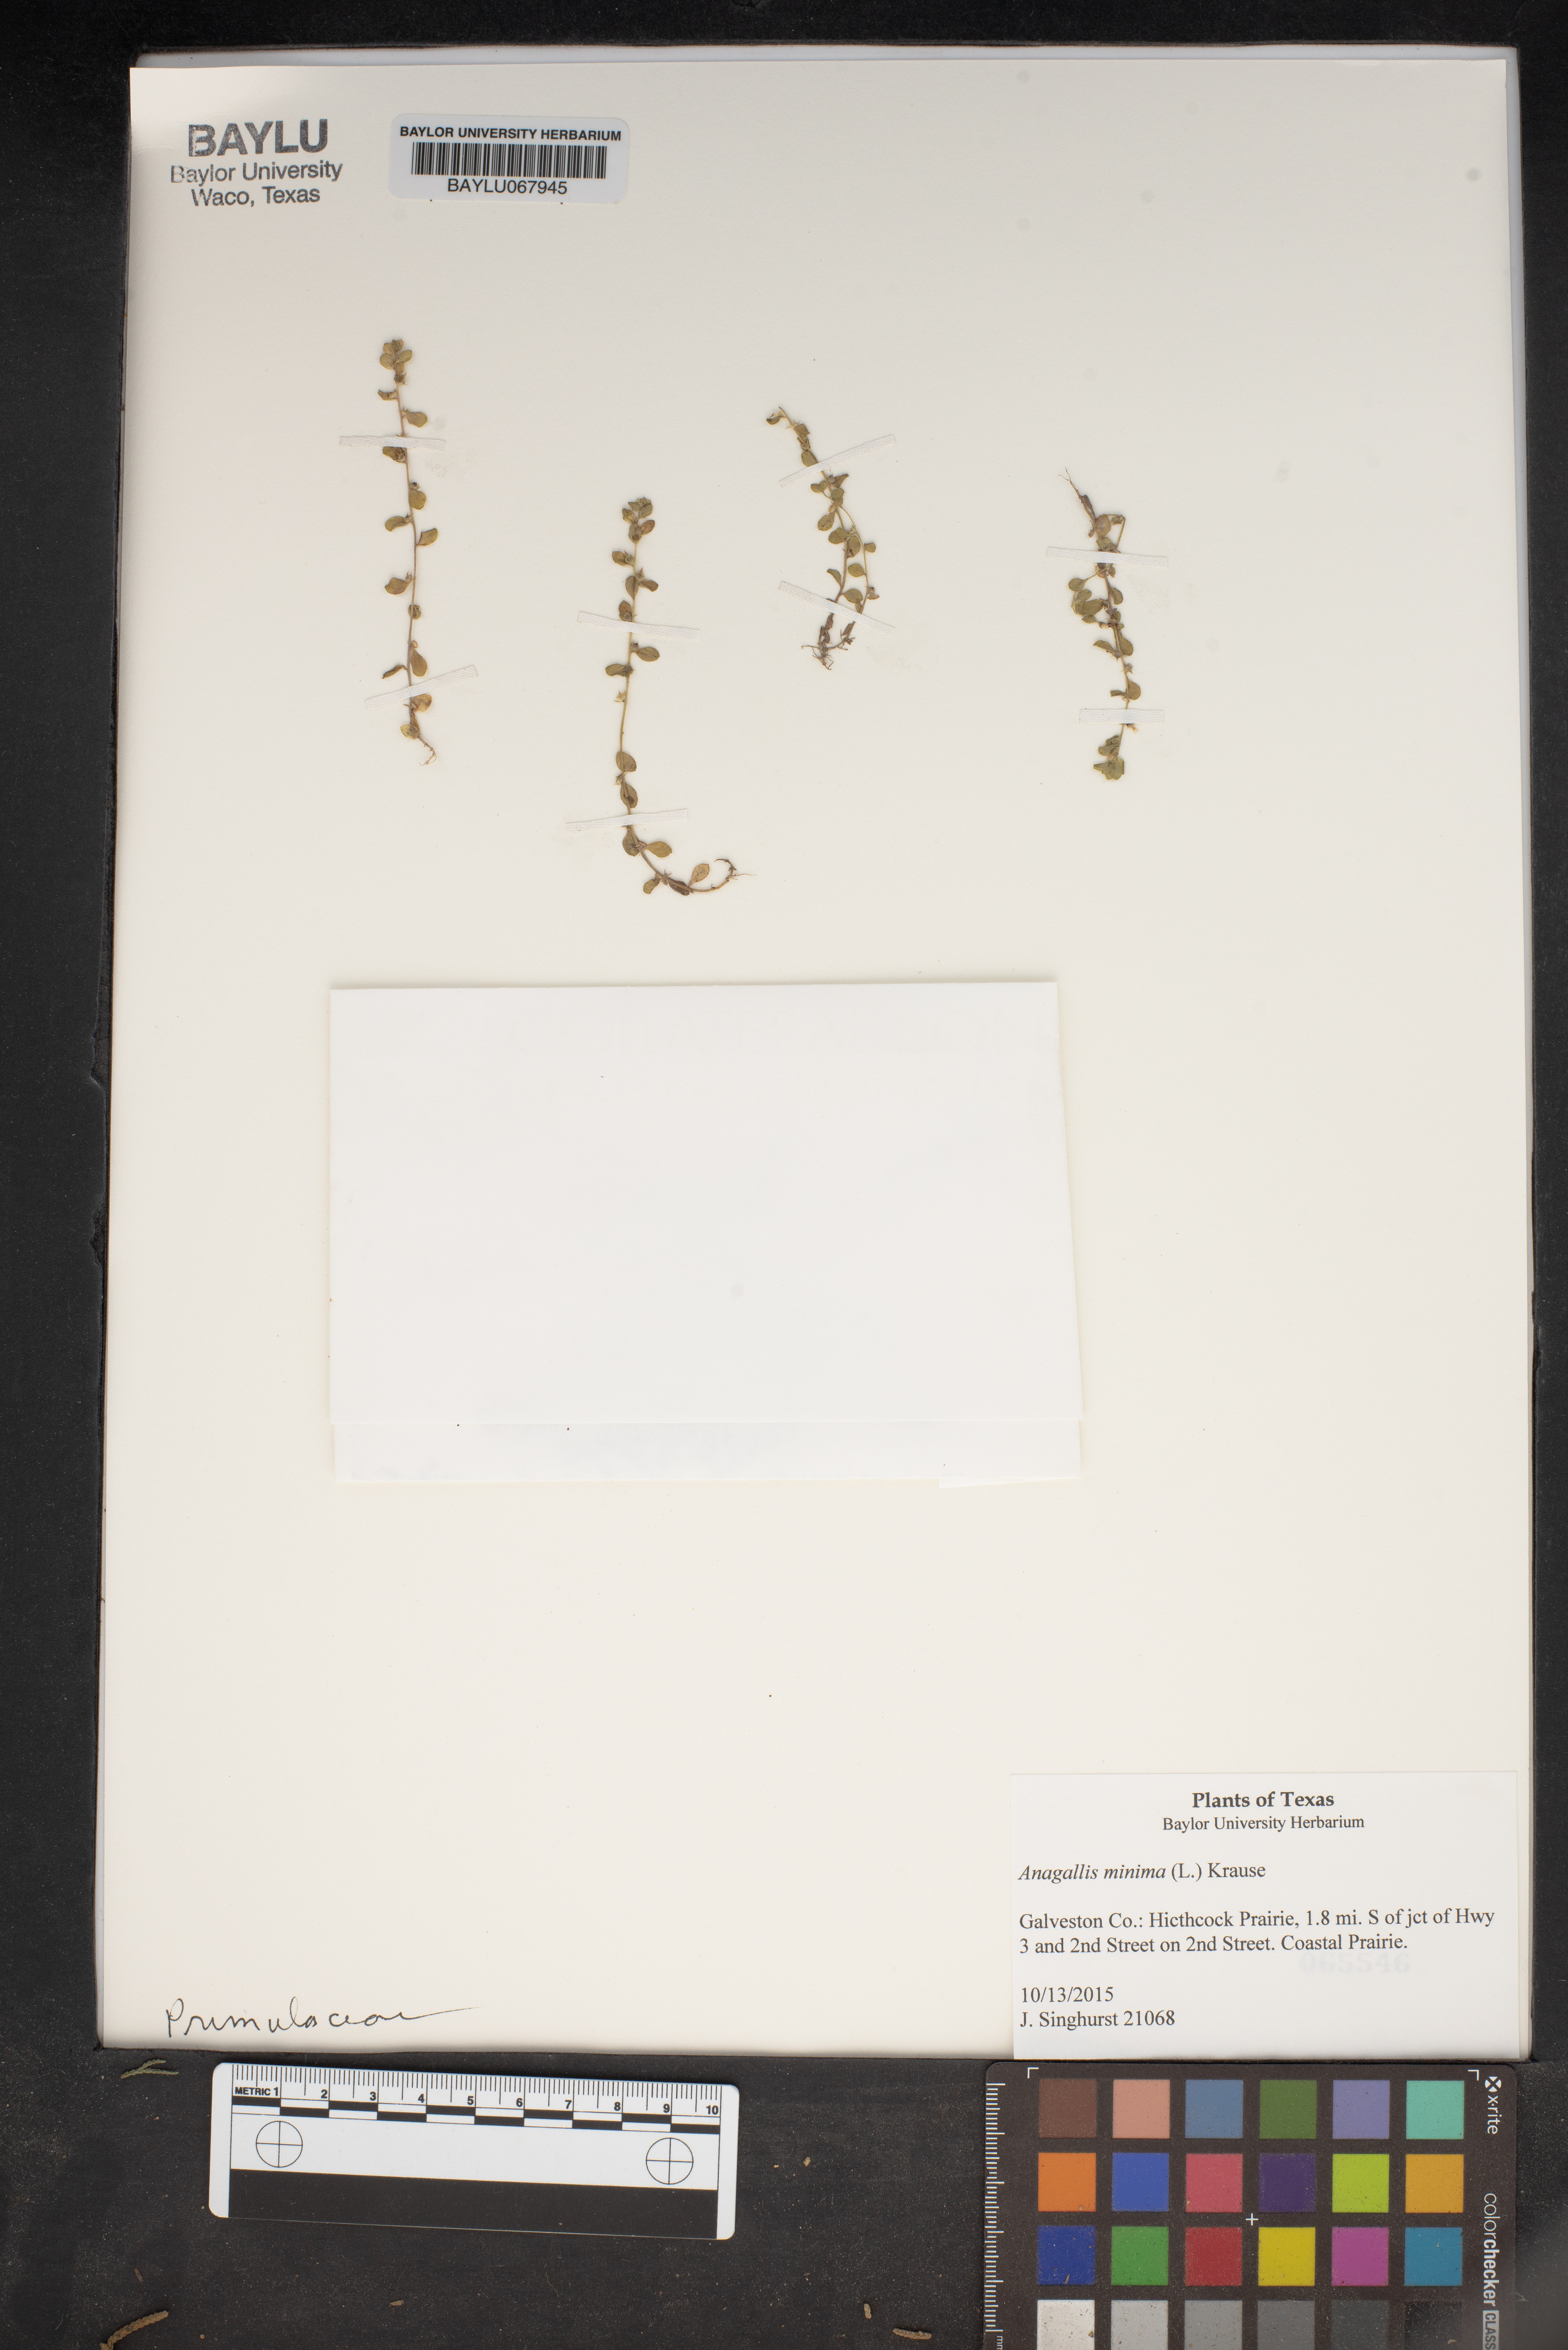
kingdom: Plantae
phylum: Tracheophyta
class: Magnoliopsida
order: Ericales
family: Primulaceae
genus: Lysimachia
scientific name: Lysimachia minima
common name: Chaffweed
